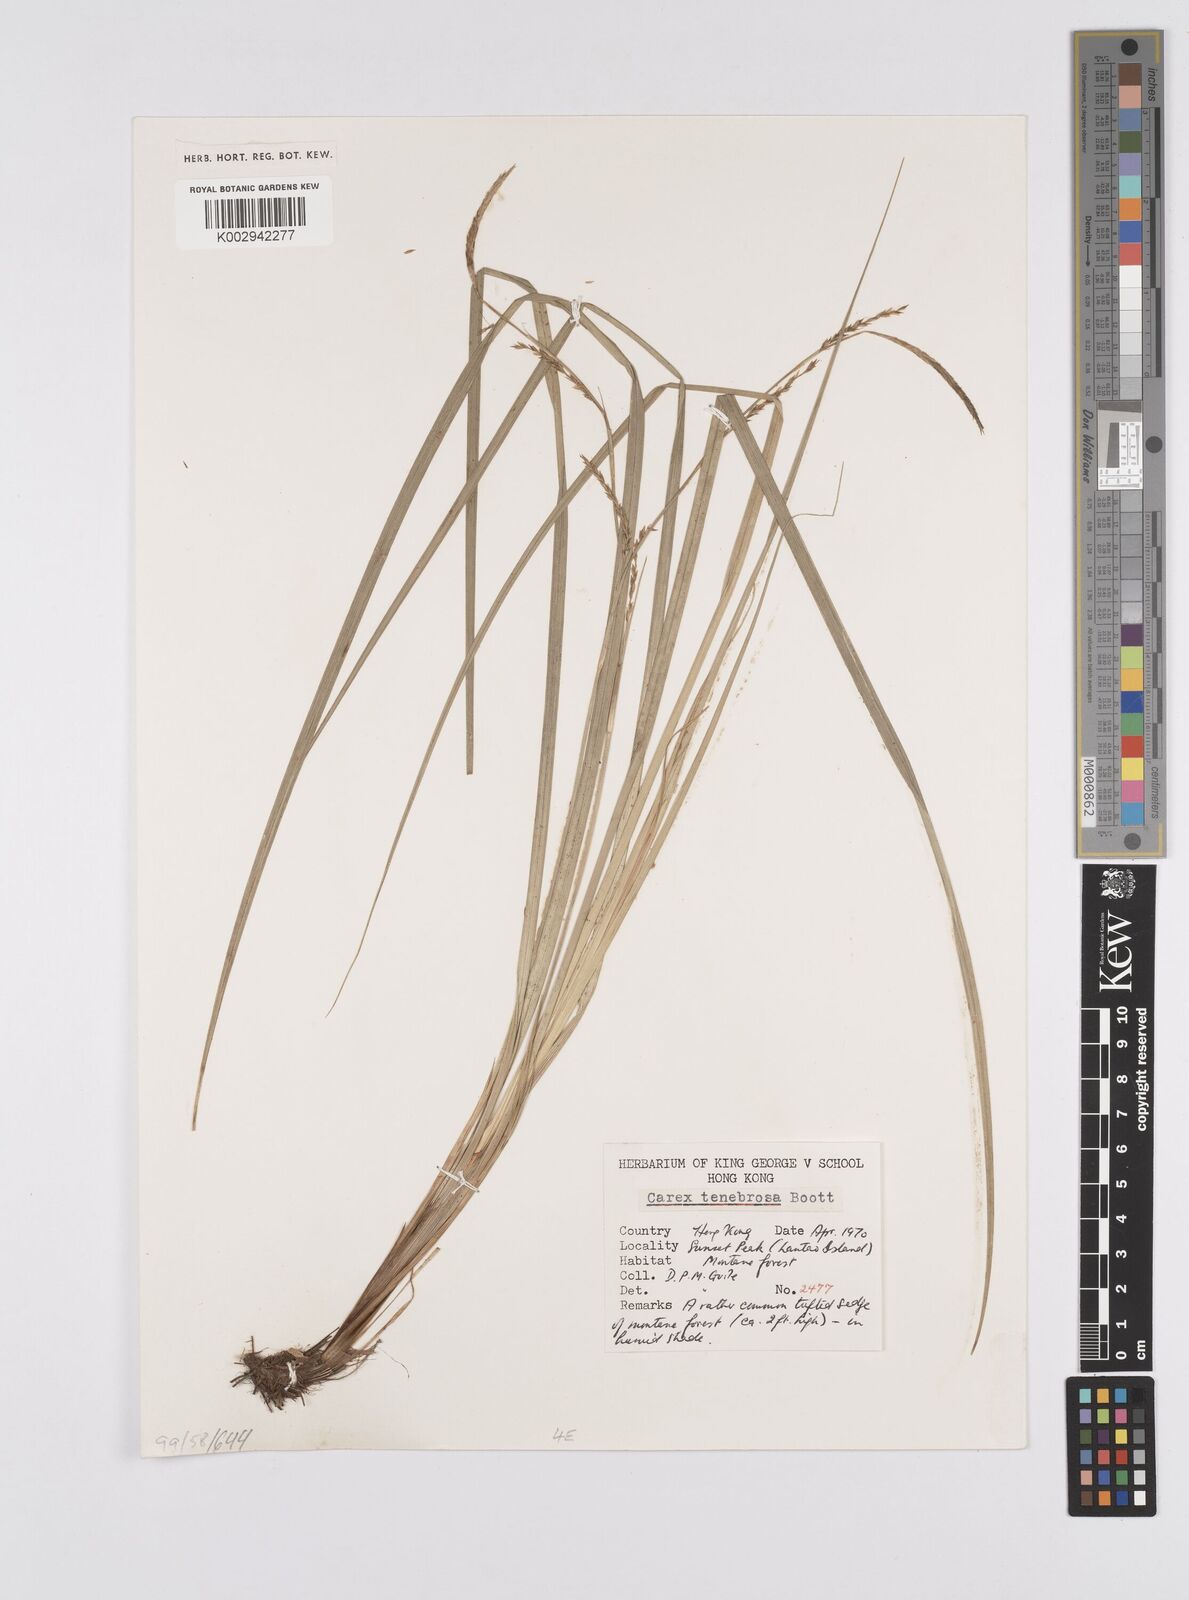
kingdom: Plantae
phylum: Tracheophyta
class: Liliopsida
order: Poales
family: Cyperaceae
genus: Carex
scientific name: Carex tenebrosa
